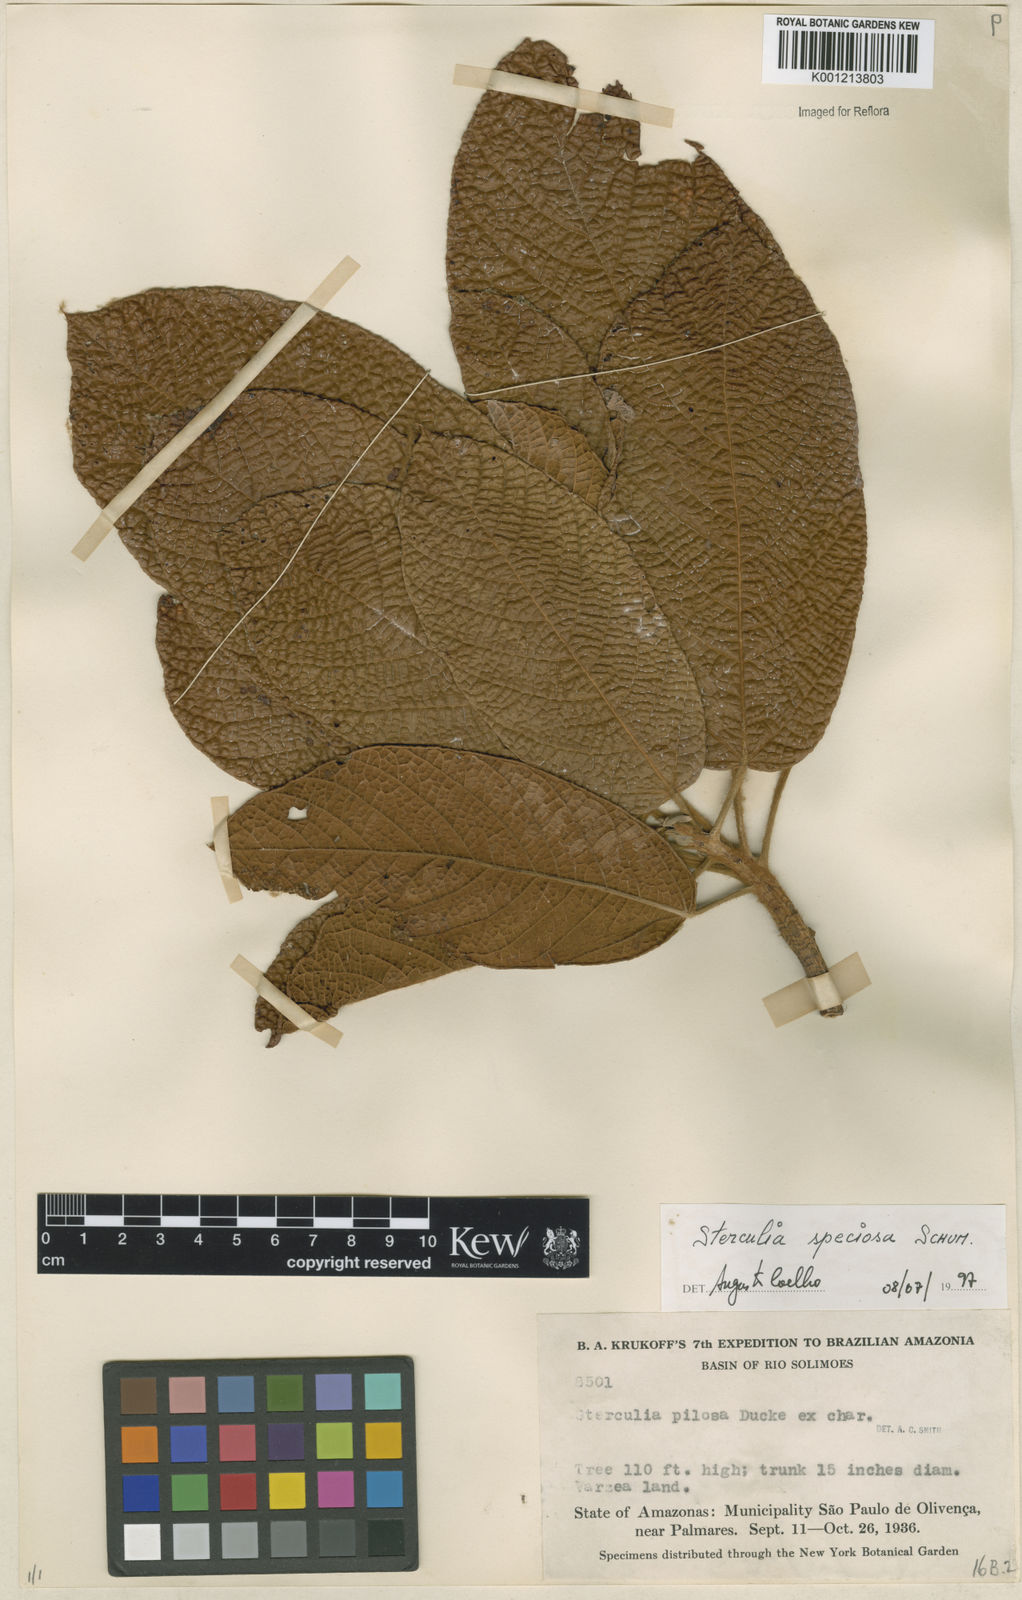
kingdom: Plantae
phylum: Tracheophyta
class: Magnoliopsida
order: Malvales
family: Malvaceae
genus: Sterculia
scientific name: Sterculia speciosa
